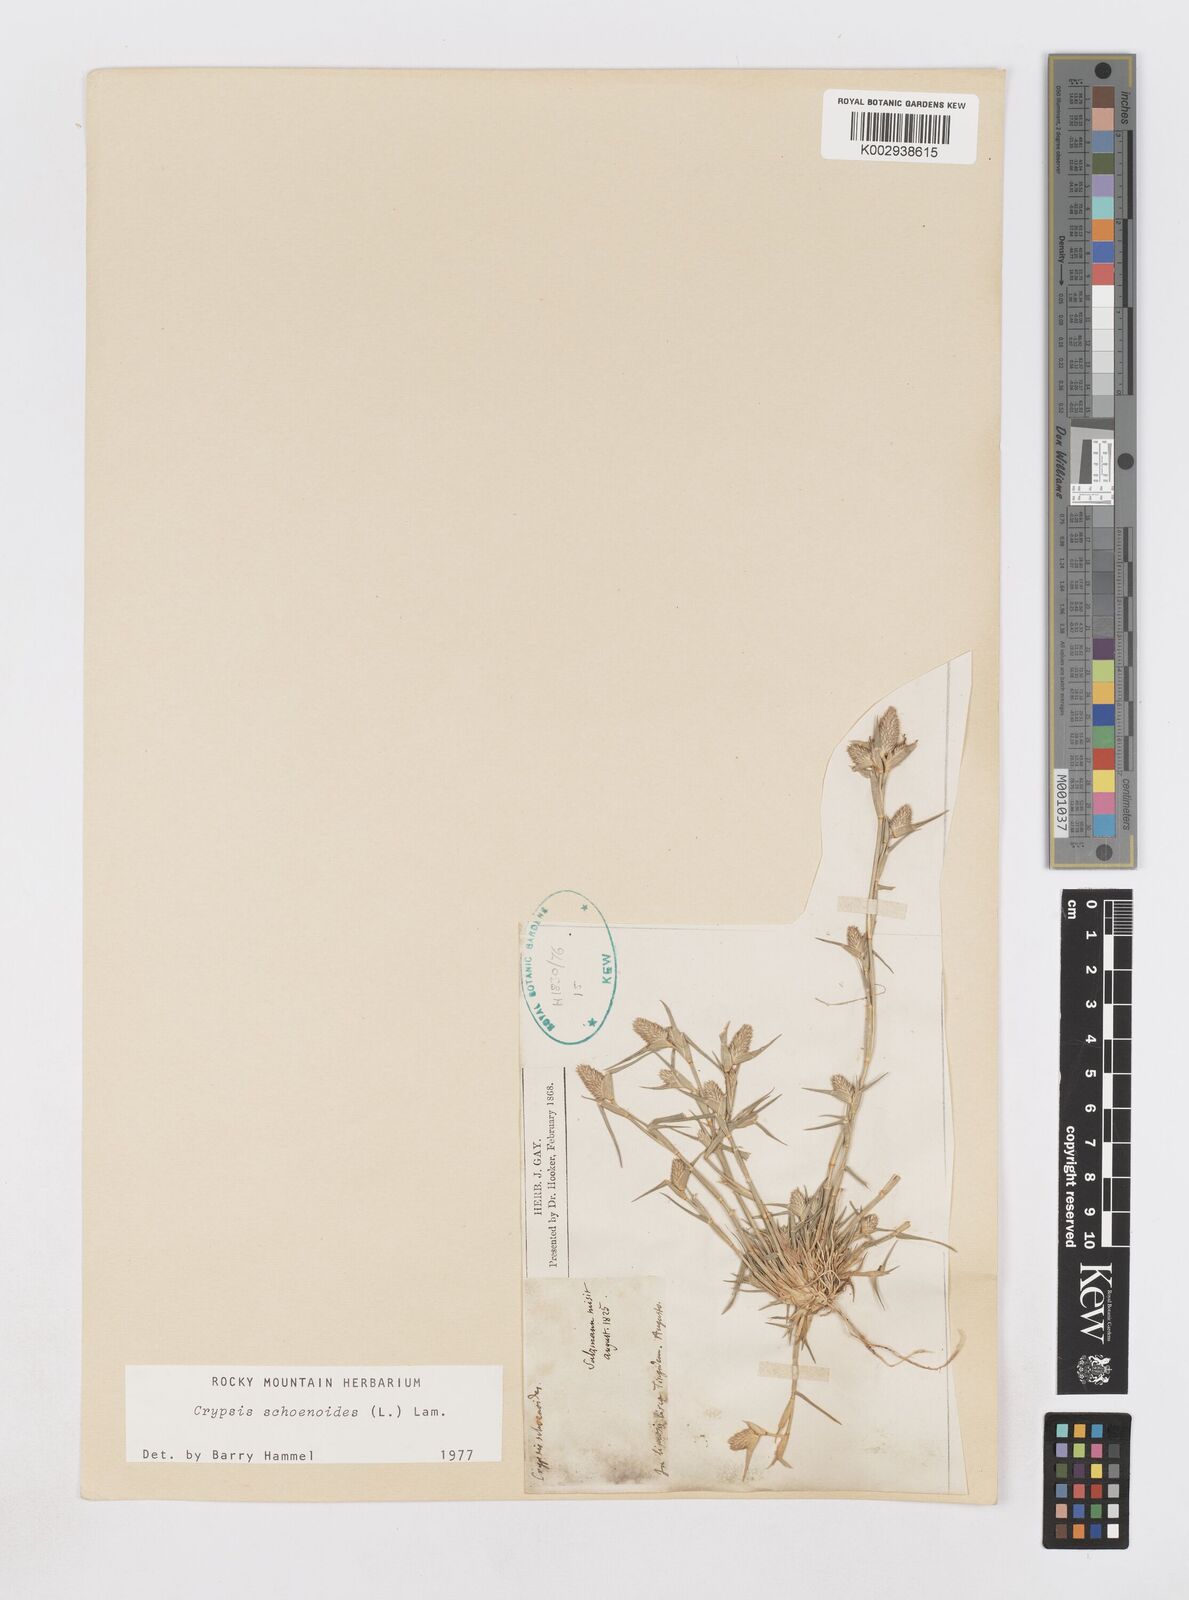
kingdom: Plantae
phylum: Tracheophyta
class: Liliopsida
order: Poales
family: Poaceae
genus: Sporobolus
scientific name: Sporobolus schoenoides
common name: Rush-like timothy
